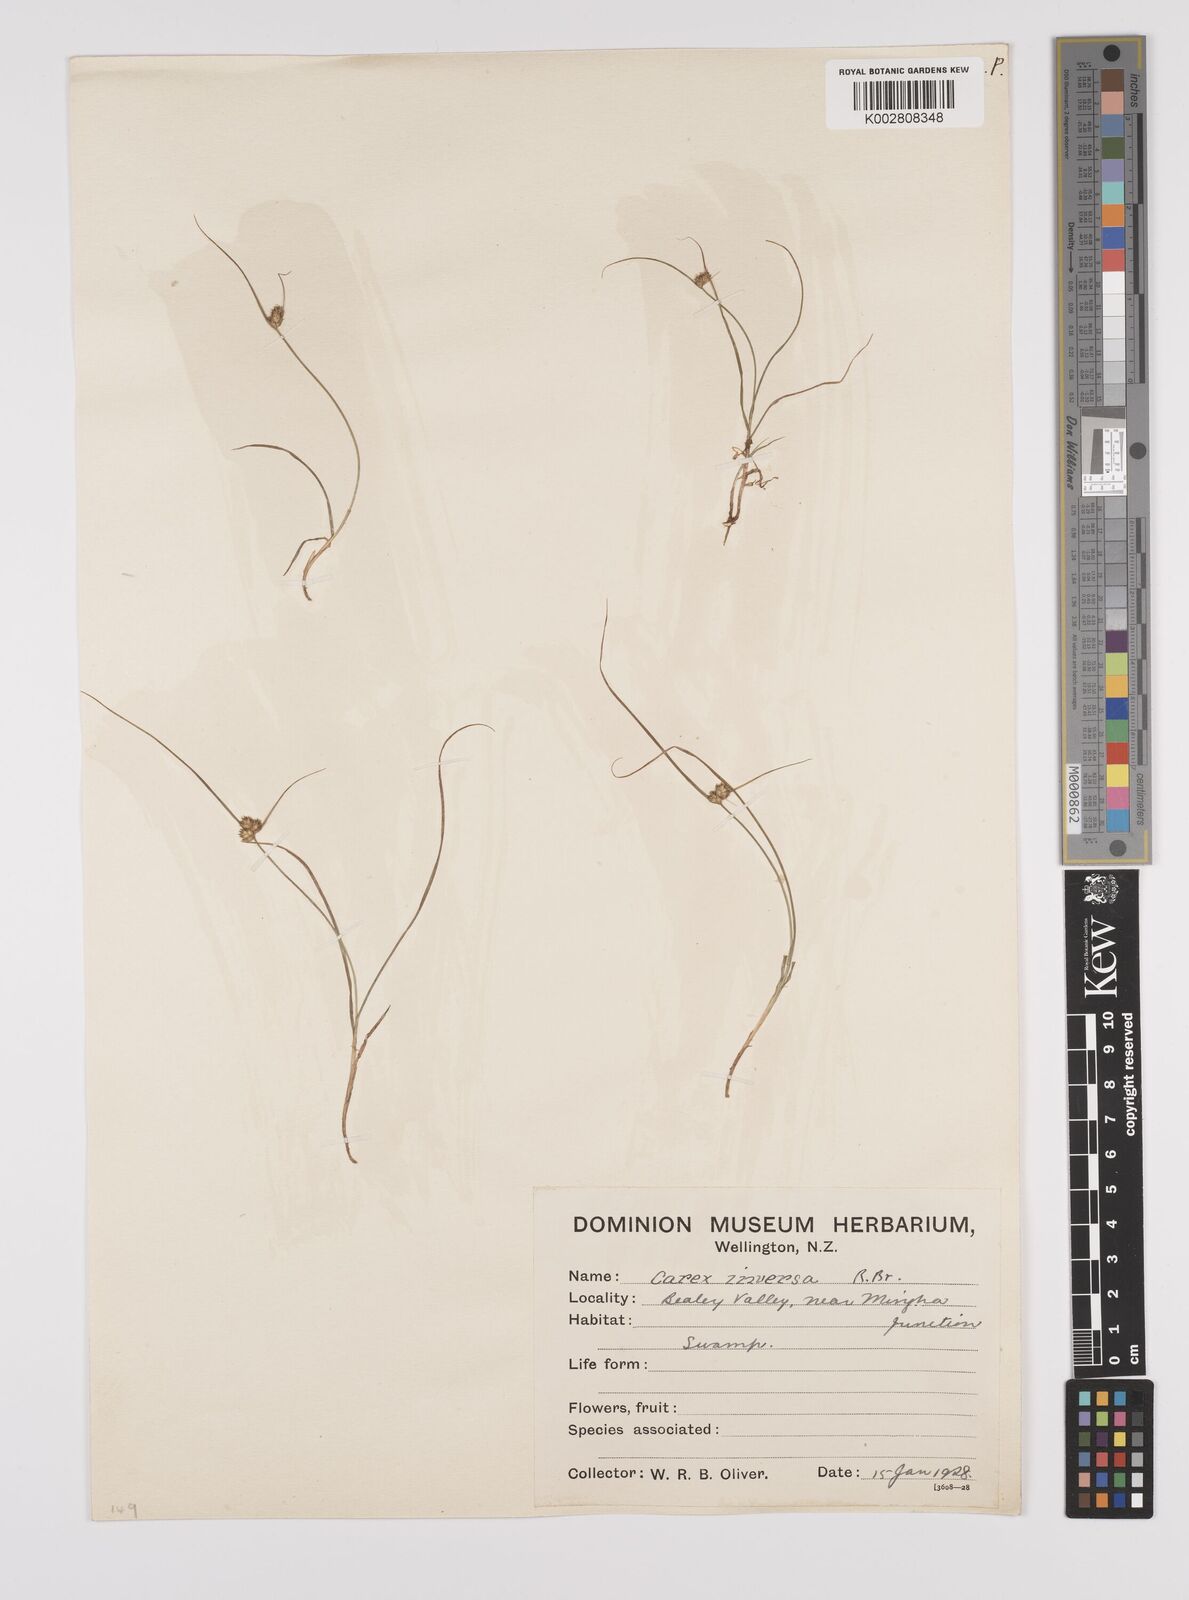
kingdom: Plantae
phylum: Tracheophyta
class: Liliopsida
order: Poales
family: Cyperaceae
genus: Carex
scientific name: Carex inversa
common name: Knob sedge
